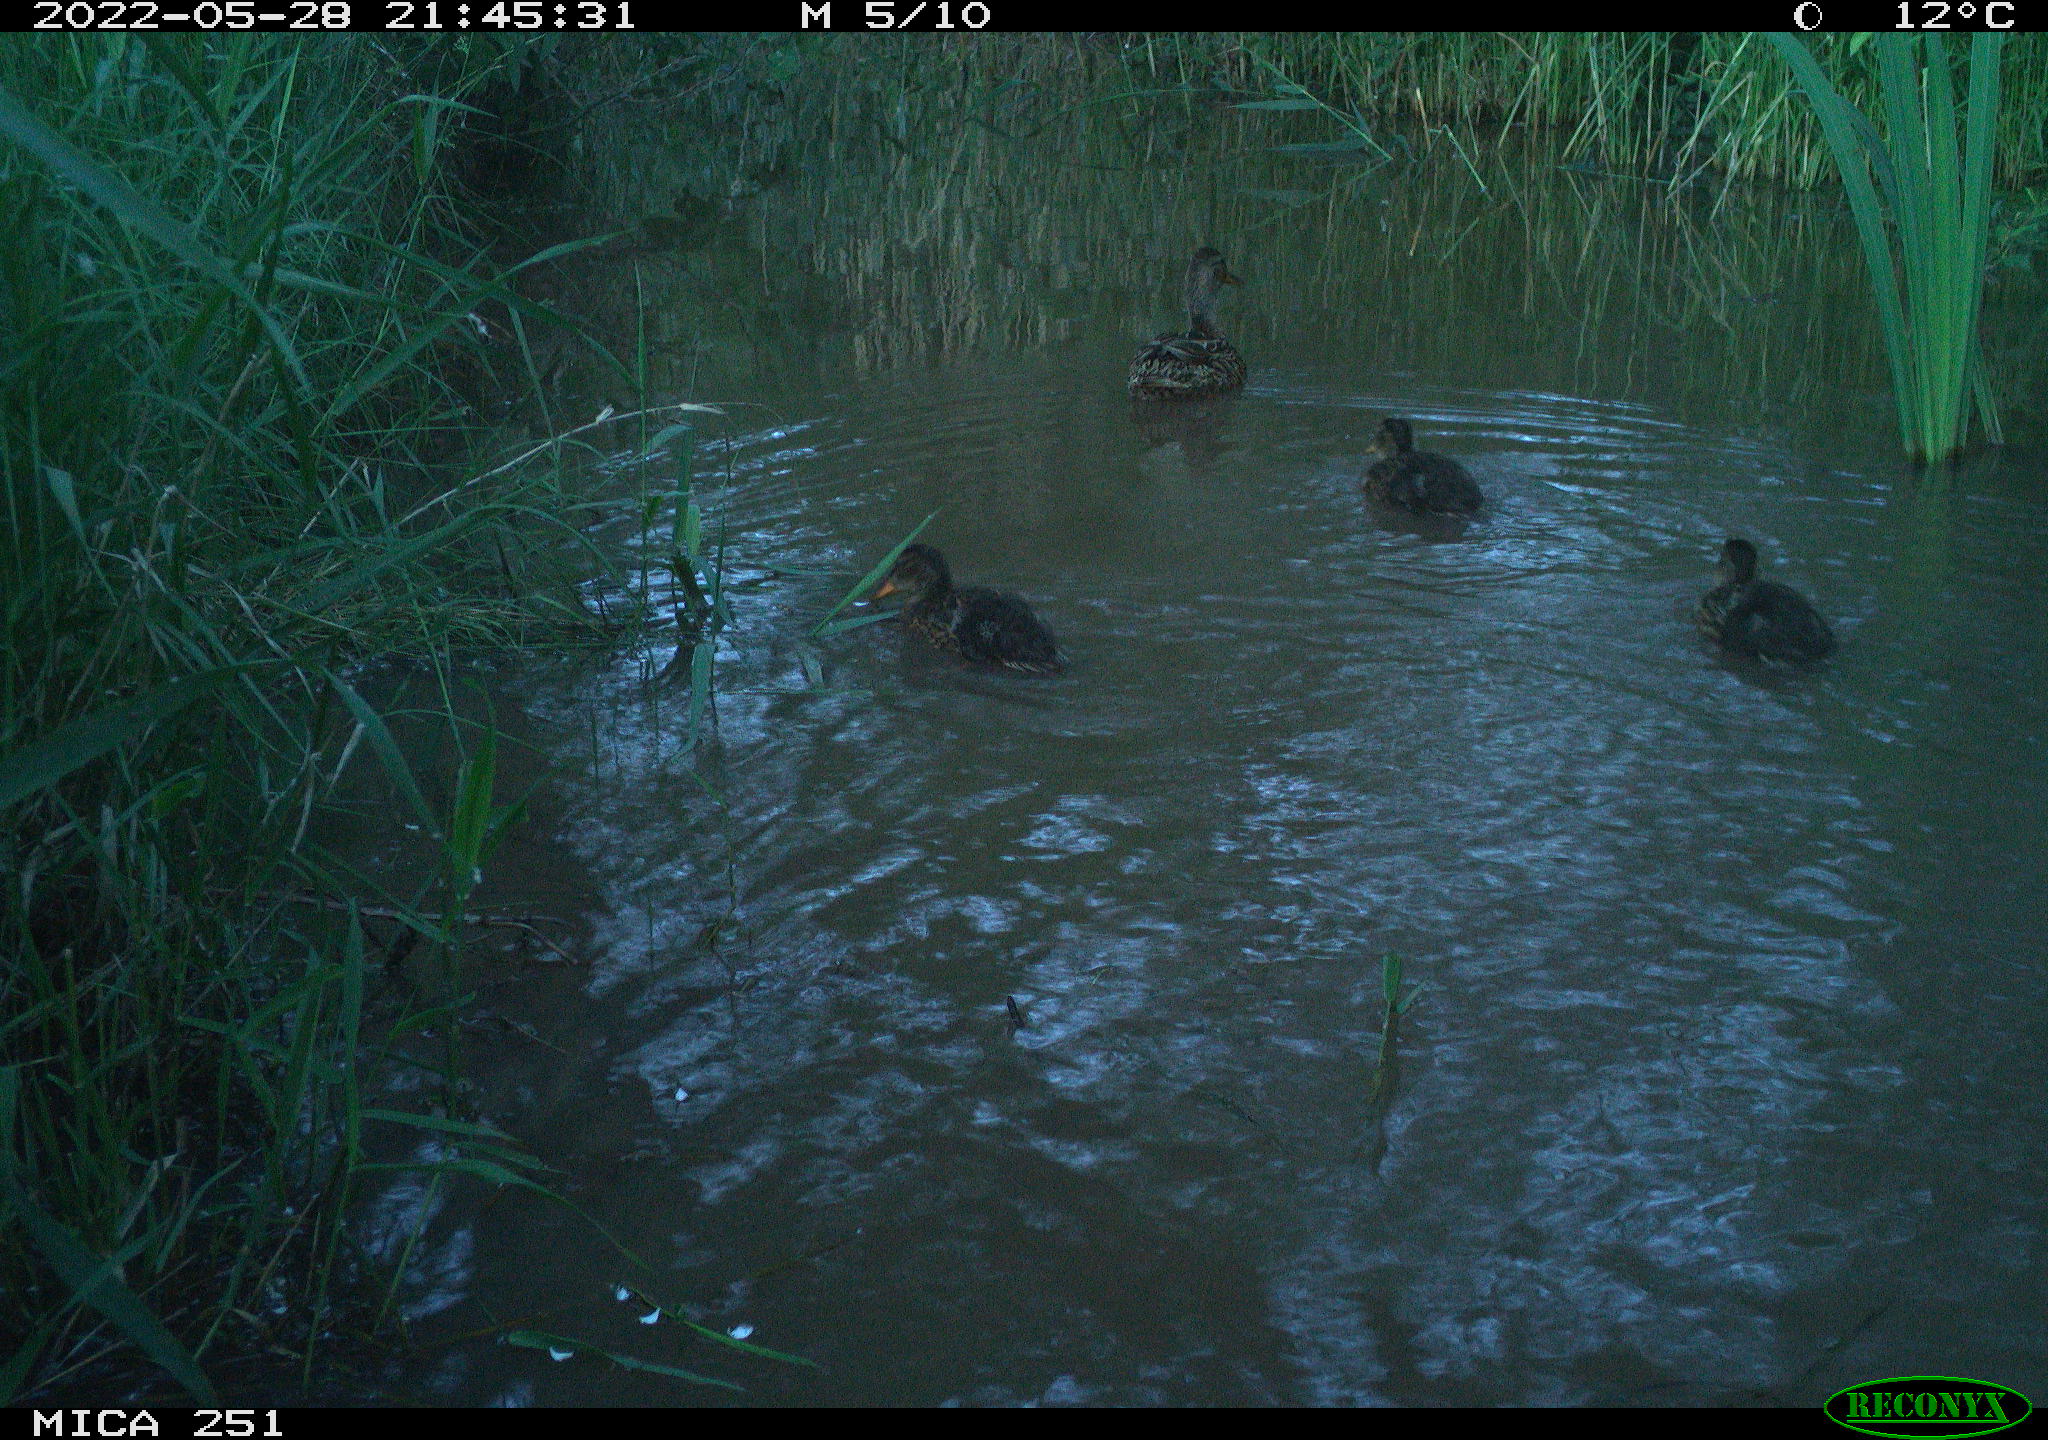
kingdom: Animalia
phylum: Chordata
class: Aves
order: Anseriformes
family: Anatidae
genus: Anas
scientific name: Anas platyrhynchos
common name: Mallard
